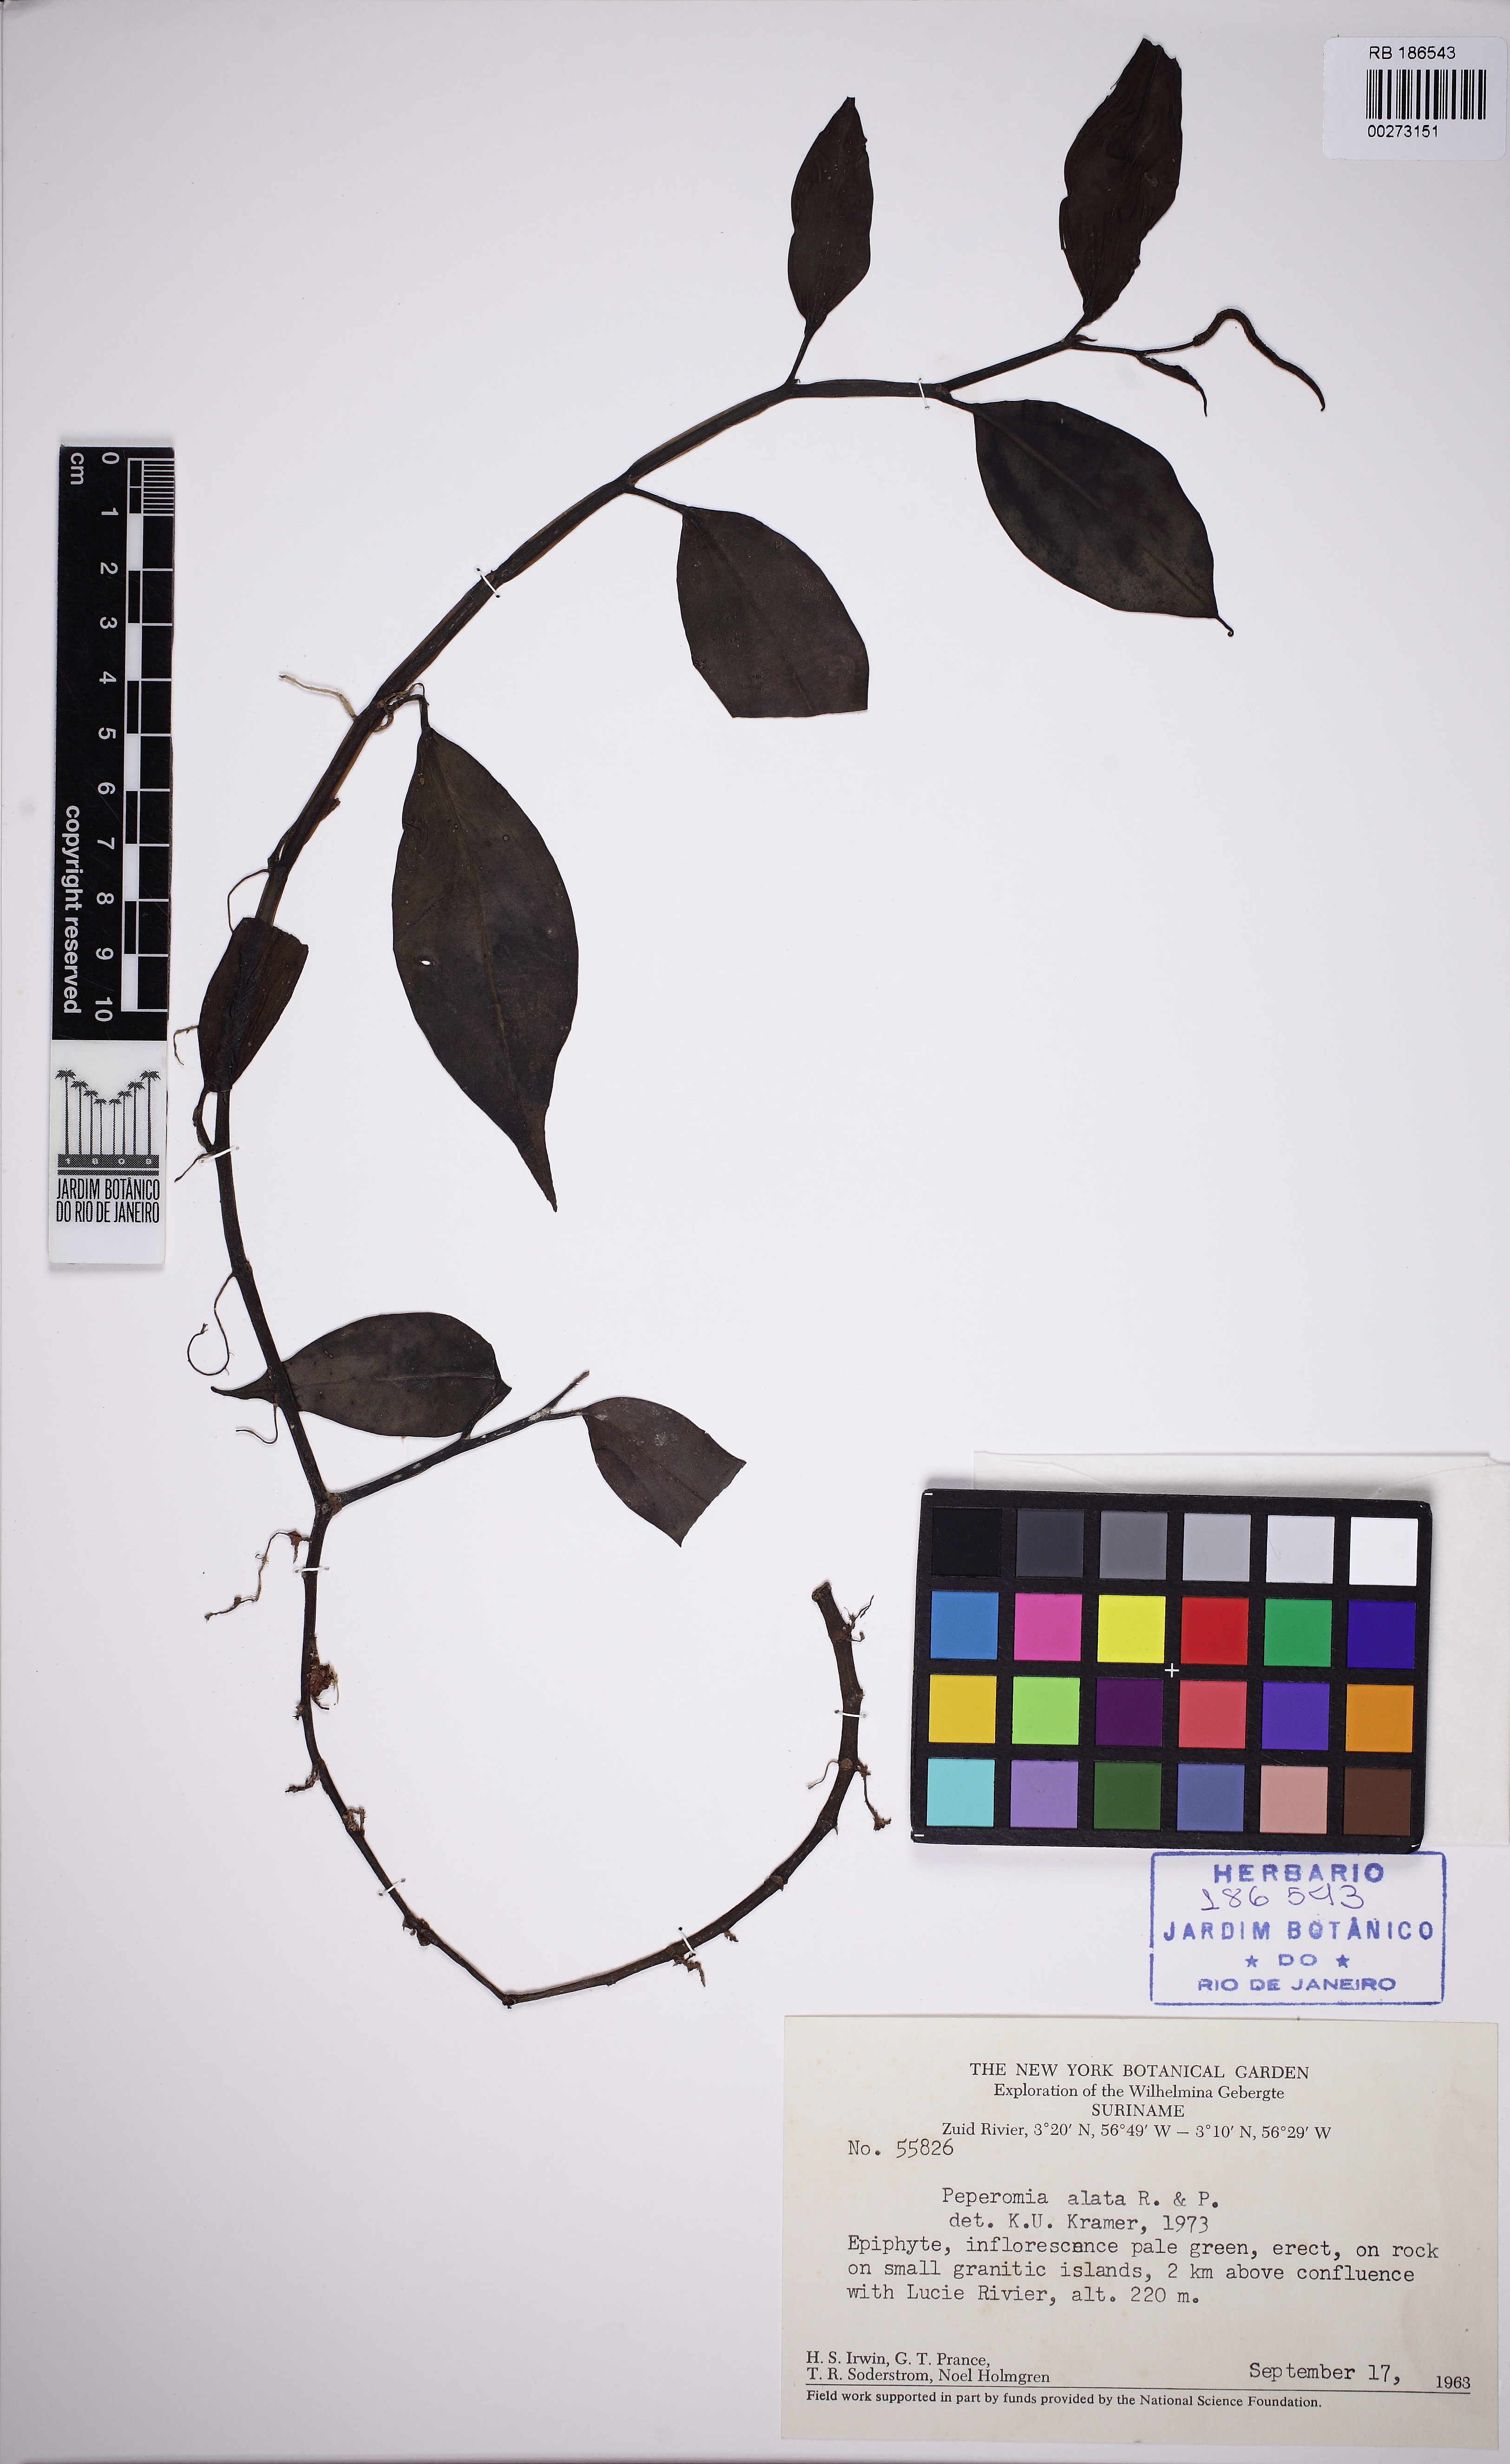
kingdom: Plantae
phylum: Tracheophyta
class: Magnoliopsida
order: Piperales
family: Piperaceae
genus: Peperomia
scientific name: Peperomia alata
